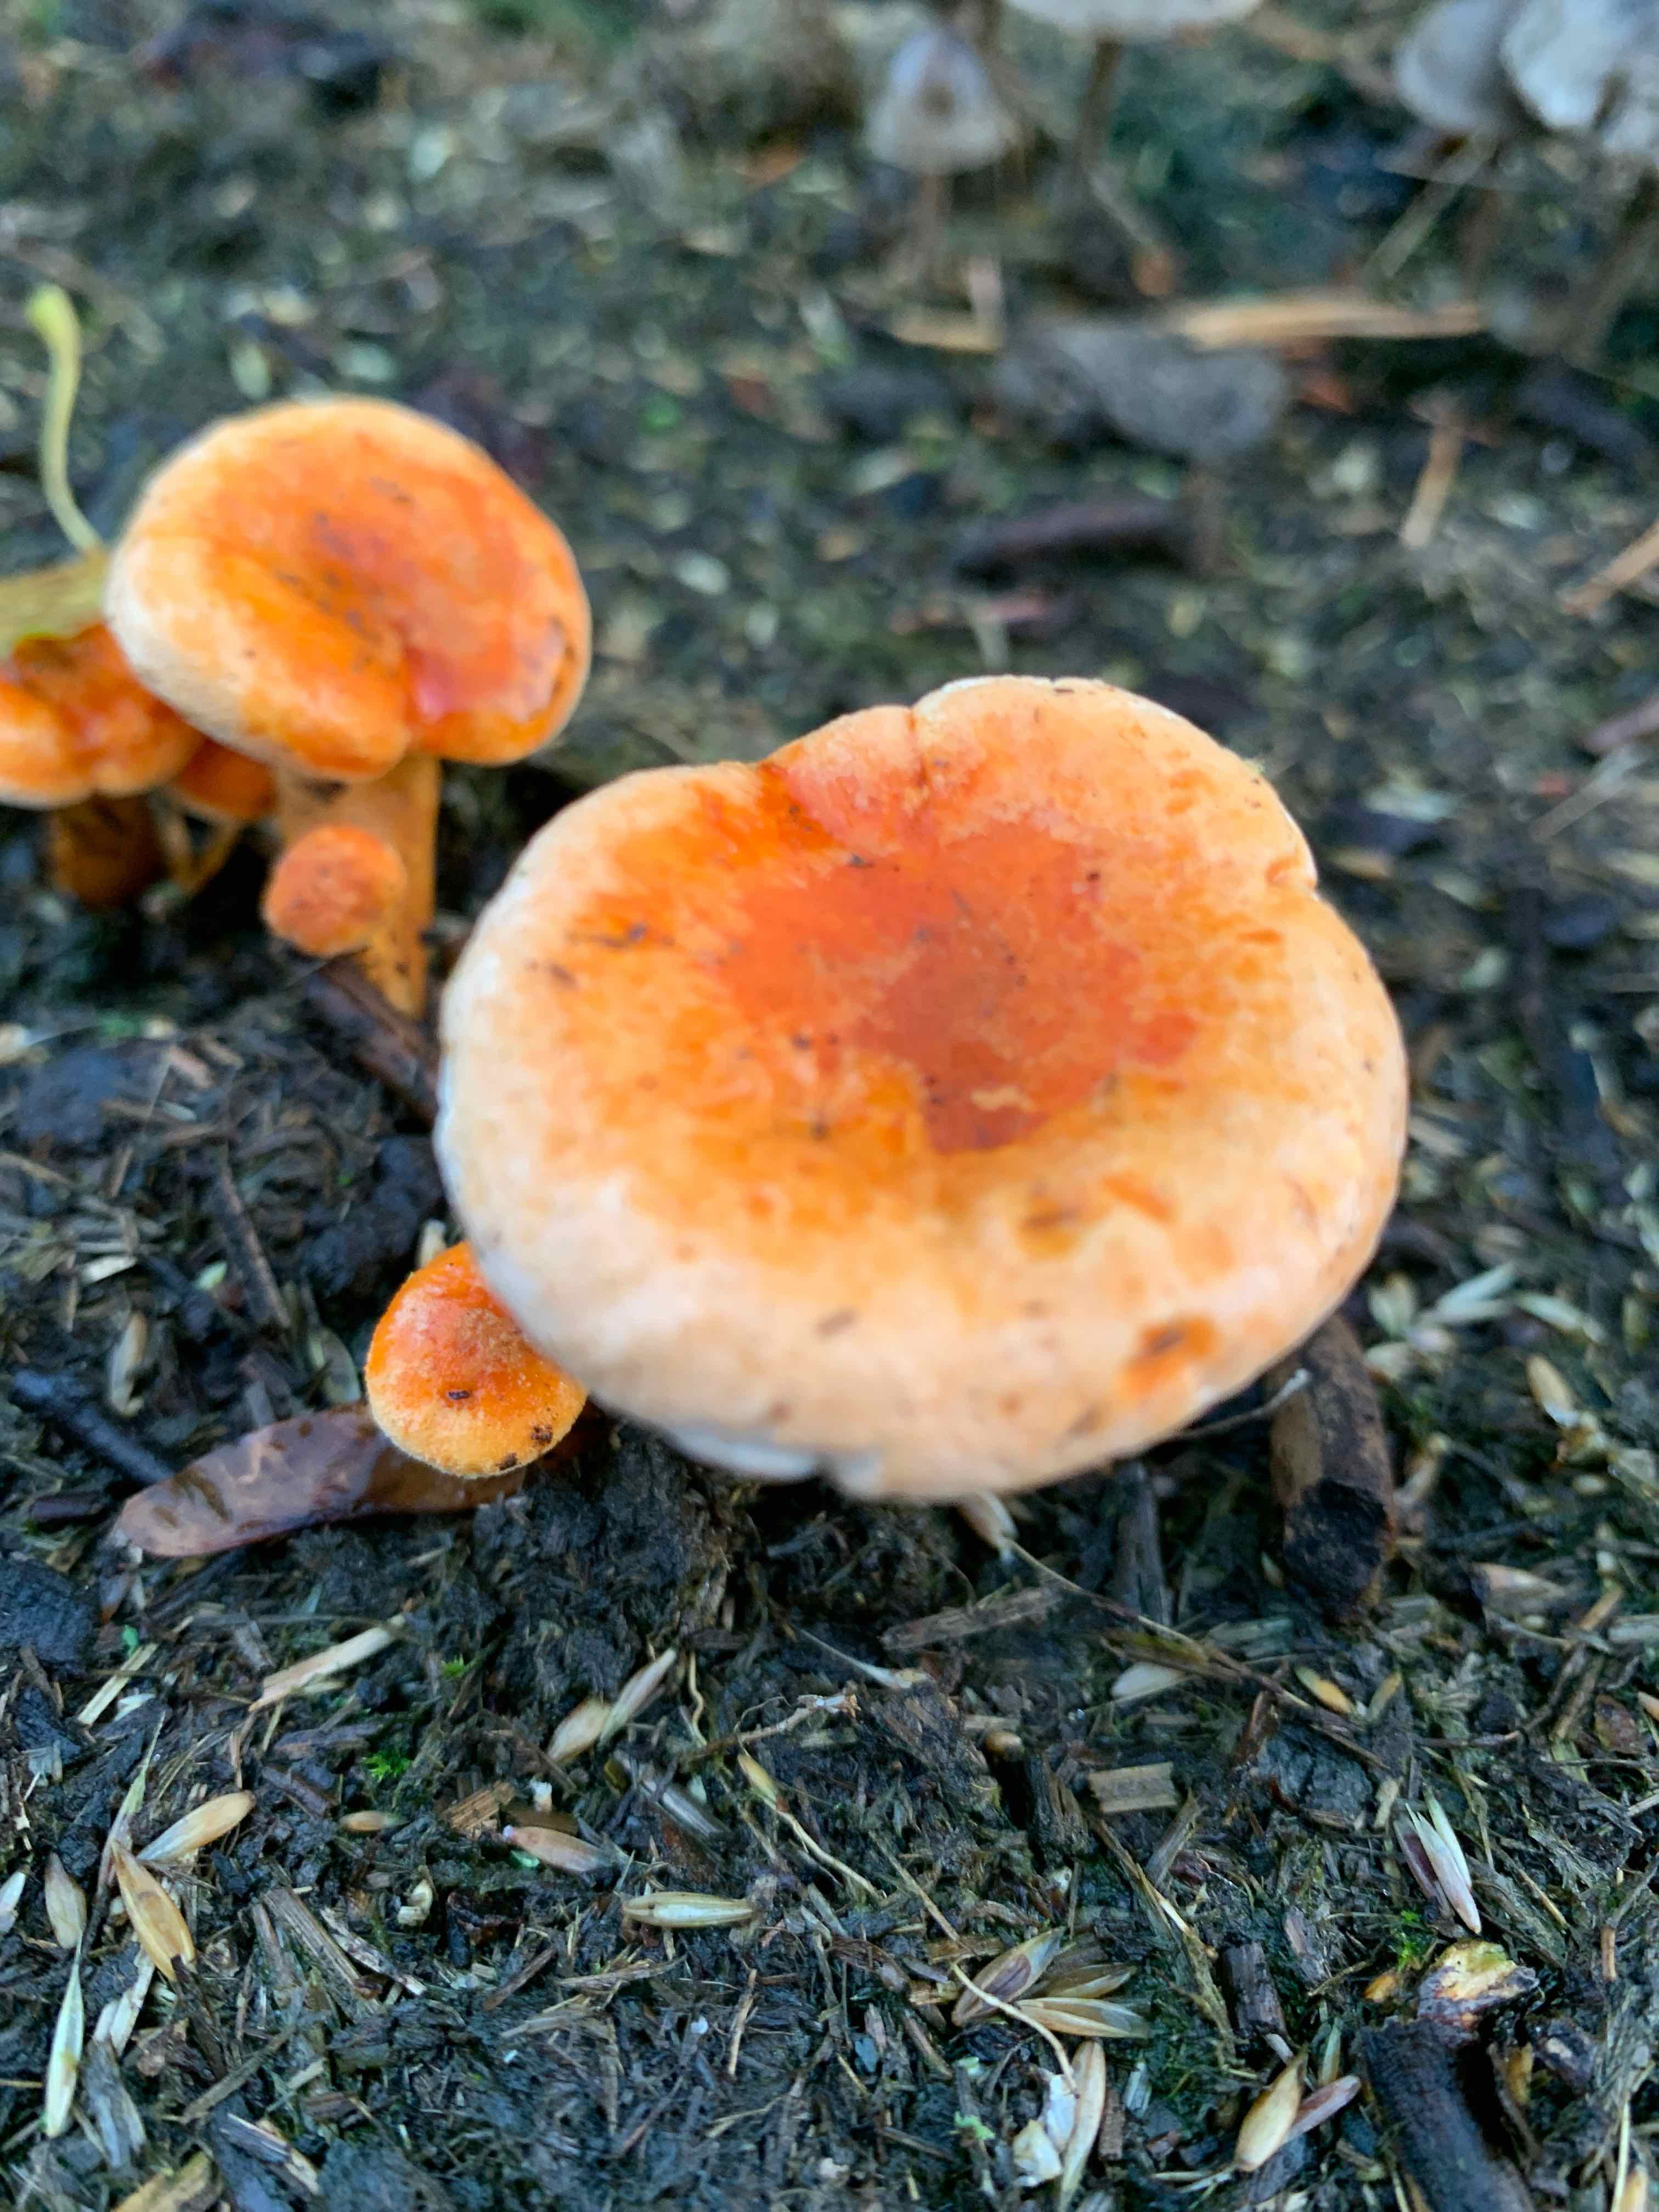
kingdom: Fungi
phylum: Basidiomycota
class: Agaricomycetes
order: Boletales
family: Hygrophoropsidaceae
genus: Hygrophoropsis
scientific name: Hygrophoropsis aurantiaca
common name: almindelig orangekantarel
